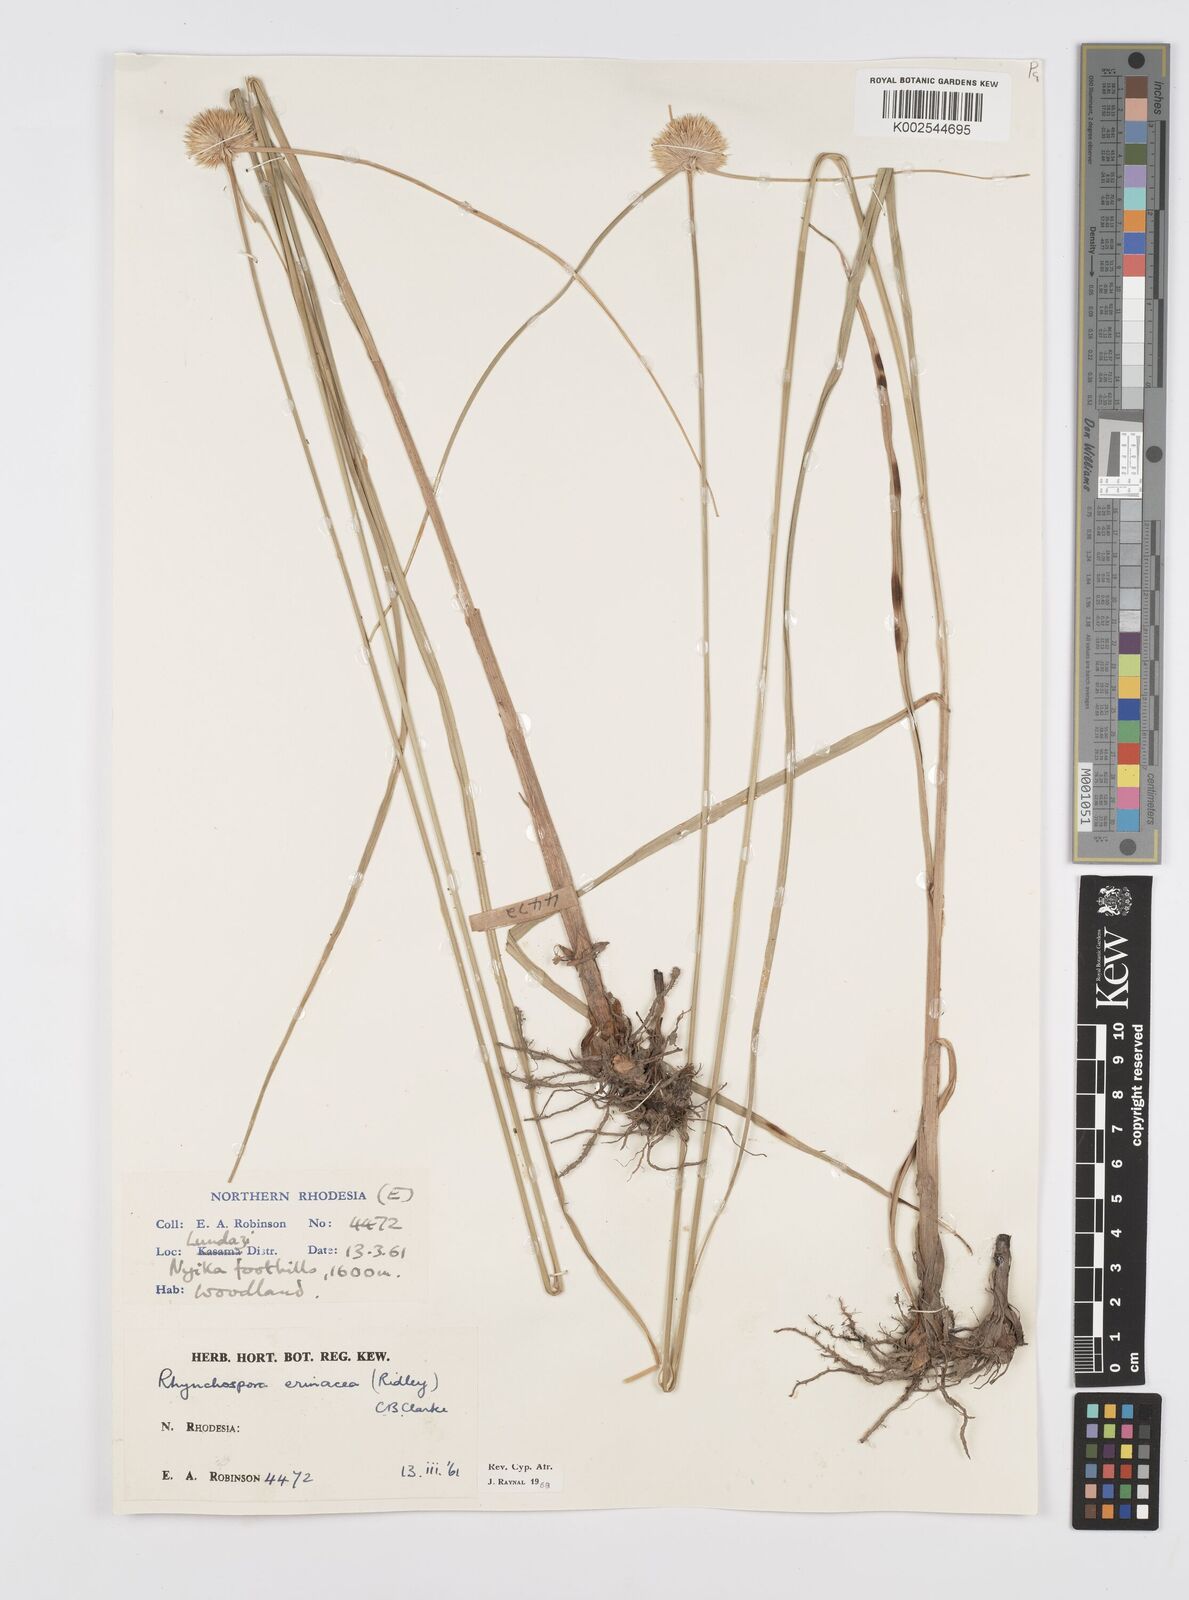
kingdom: Plantae
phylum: Tracheophyta
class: Liliopsida
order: Poales
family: Cyperaceae
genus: Cyperus
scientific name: Cyperus erinaceus
